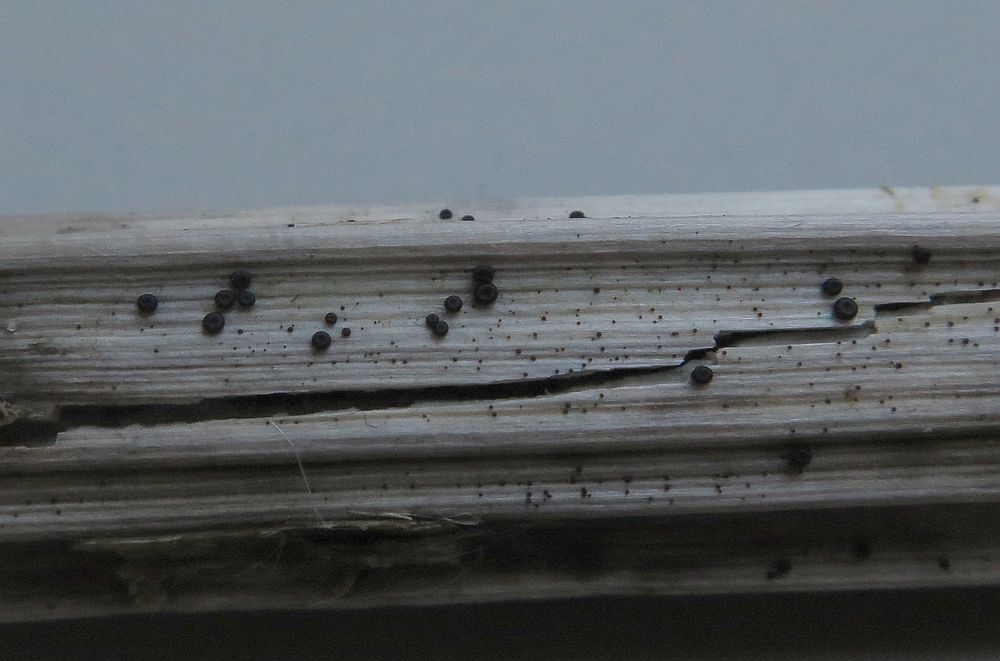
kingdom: Fungi
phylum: Ascomycota
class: Leotiomycetes
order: Helotiales
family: Heterosphaeriaceae
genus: Heterosphaeria
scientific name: Heterosphaeria
